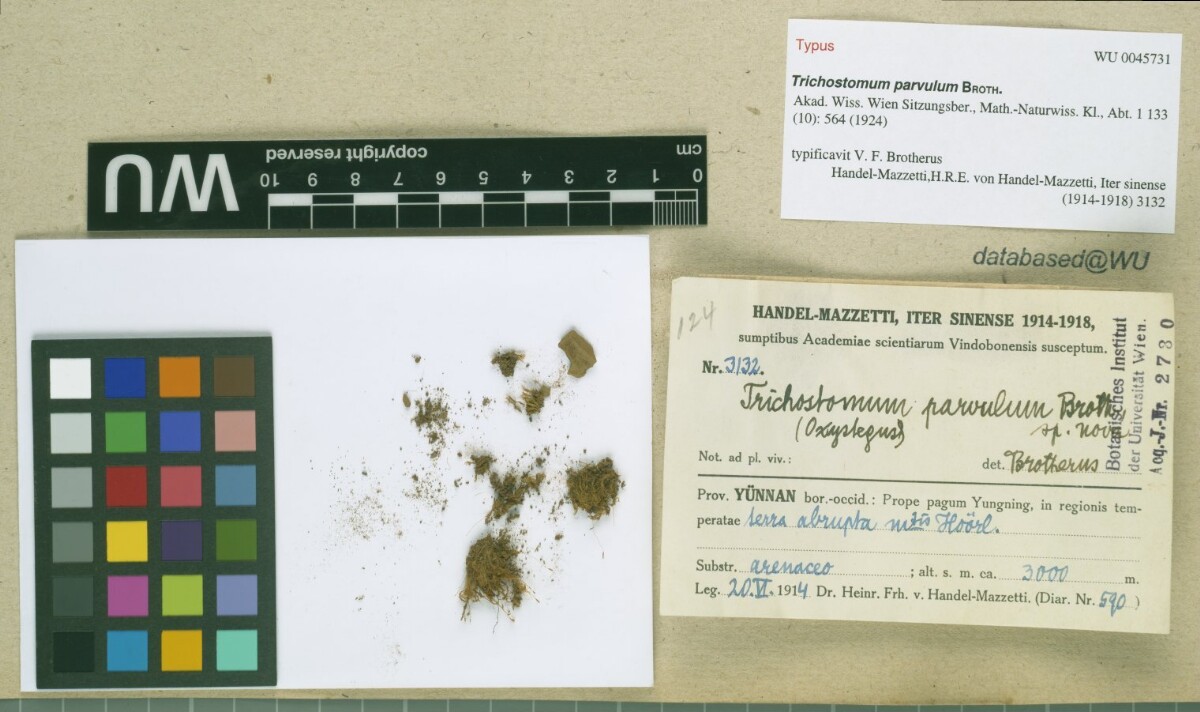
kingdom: Plantae
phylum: Bryophyta
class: Bryopsida
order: Pottiales
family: Pottiaceae
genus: Chionoloma
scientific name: Chionoloma tenuirostre
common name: Narrow-fruited crisp-moss
